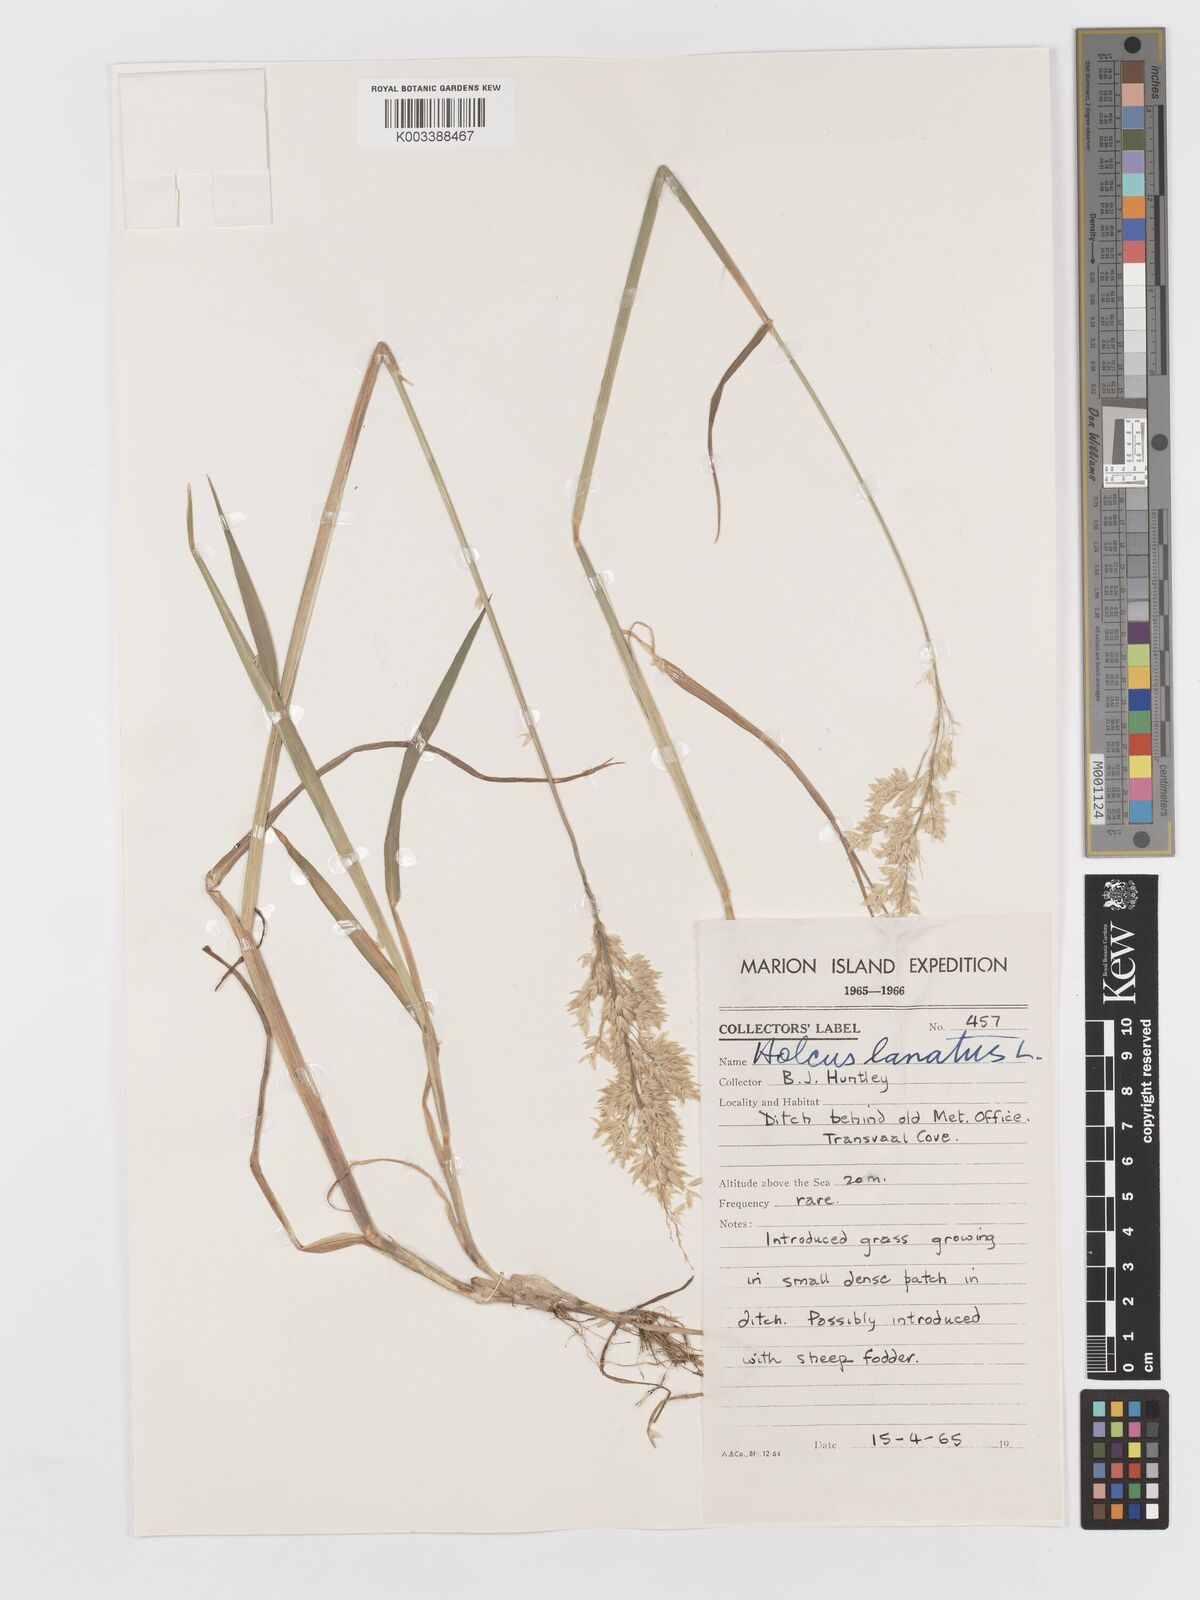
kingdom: Plantae
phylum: Tracheophyta
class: Liliopsida
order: Poales
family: Poaceae
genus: Holcus
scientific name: Holcus lanatus
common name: Yorkshire-fog
